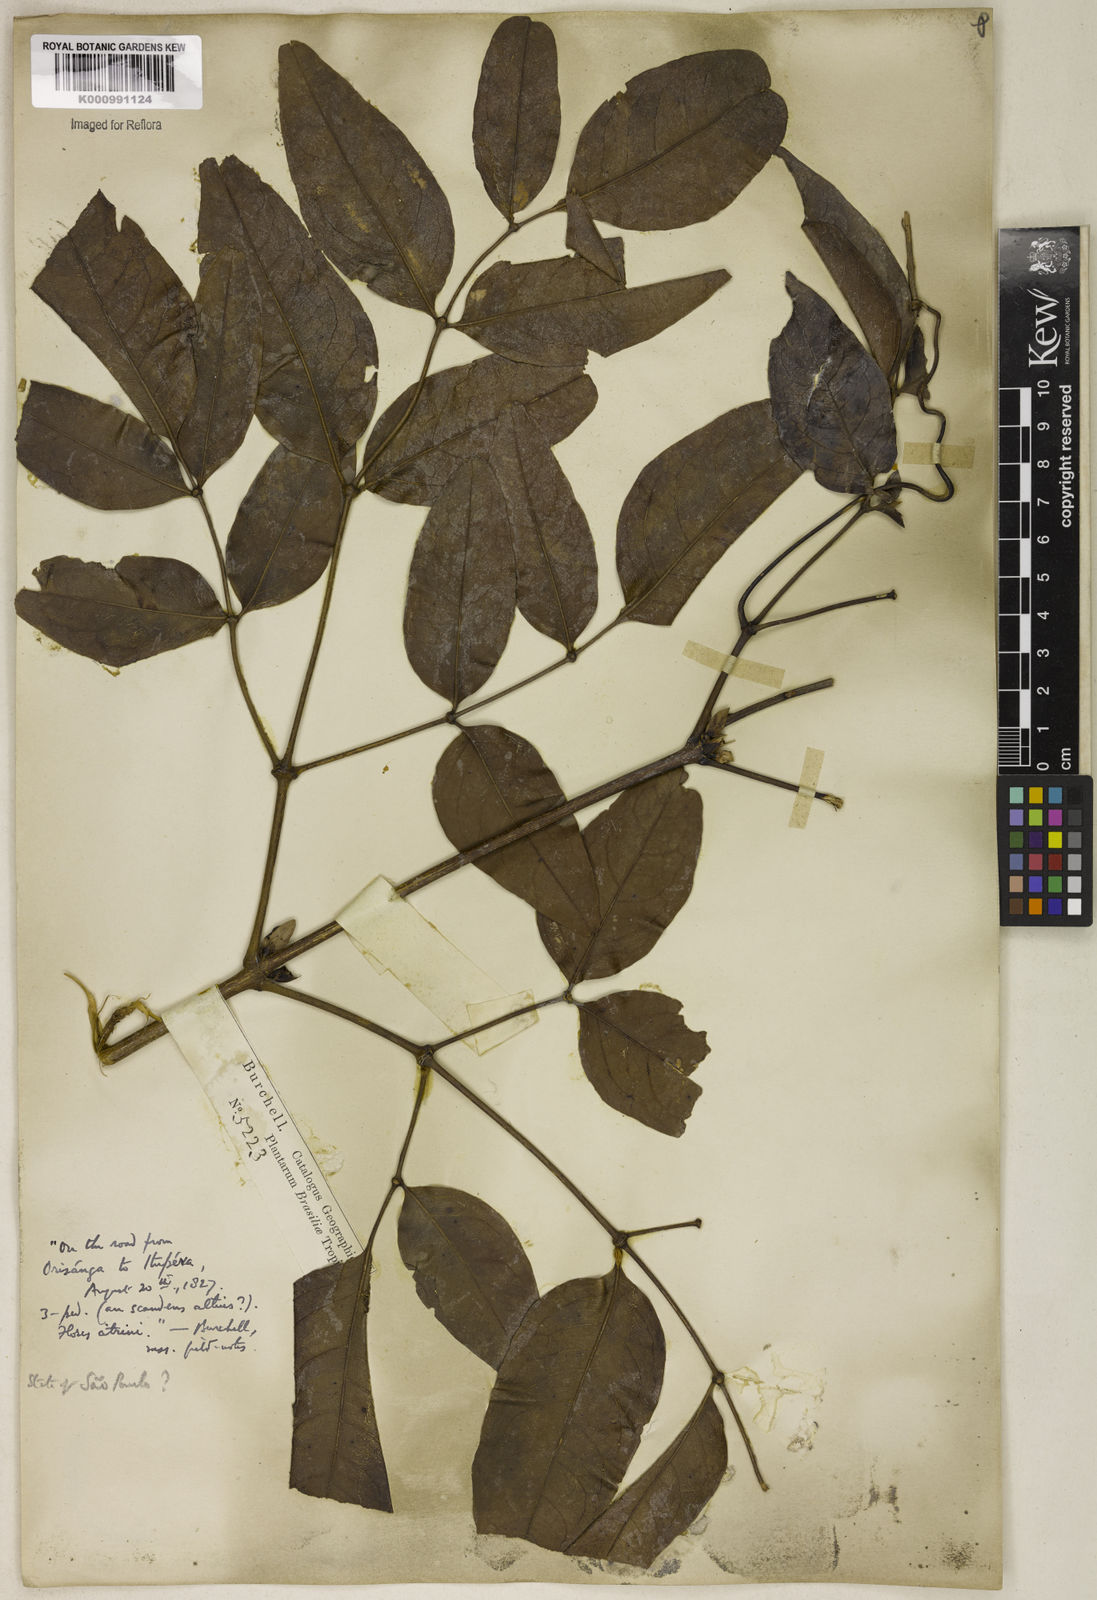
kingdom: Plantae
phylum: Tracheophyta
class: Magnoliopsida
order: Lamiales
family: Bignoniaceae
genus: Adenocalymma
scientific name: Adenocalymma
